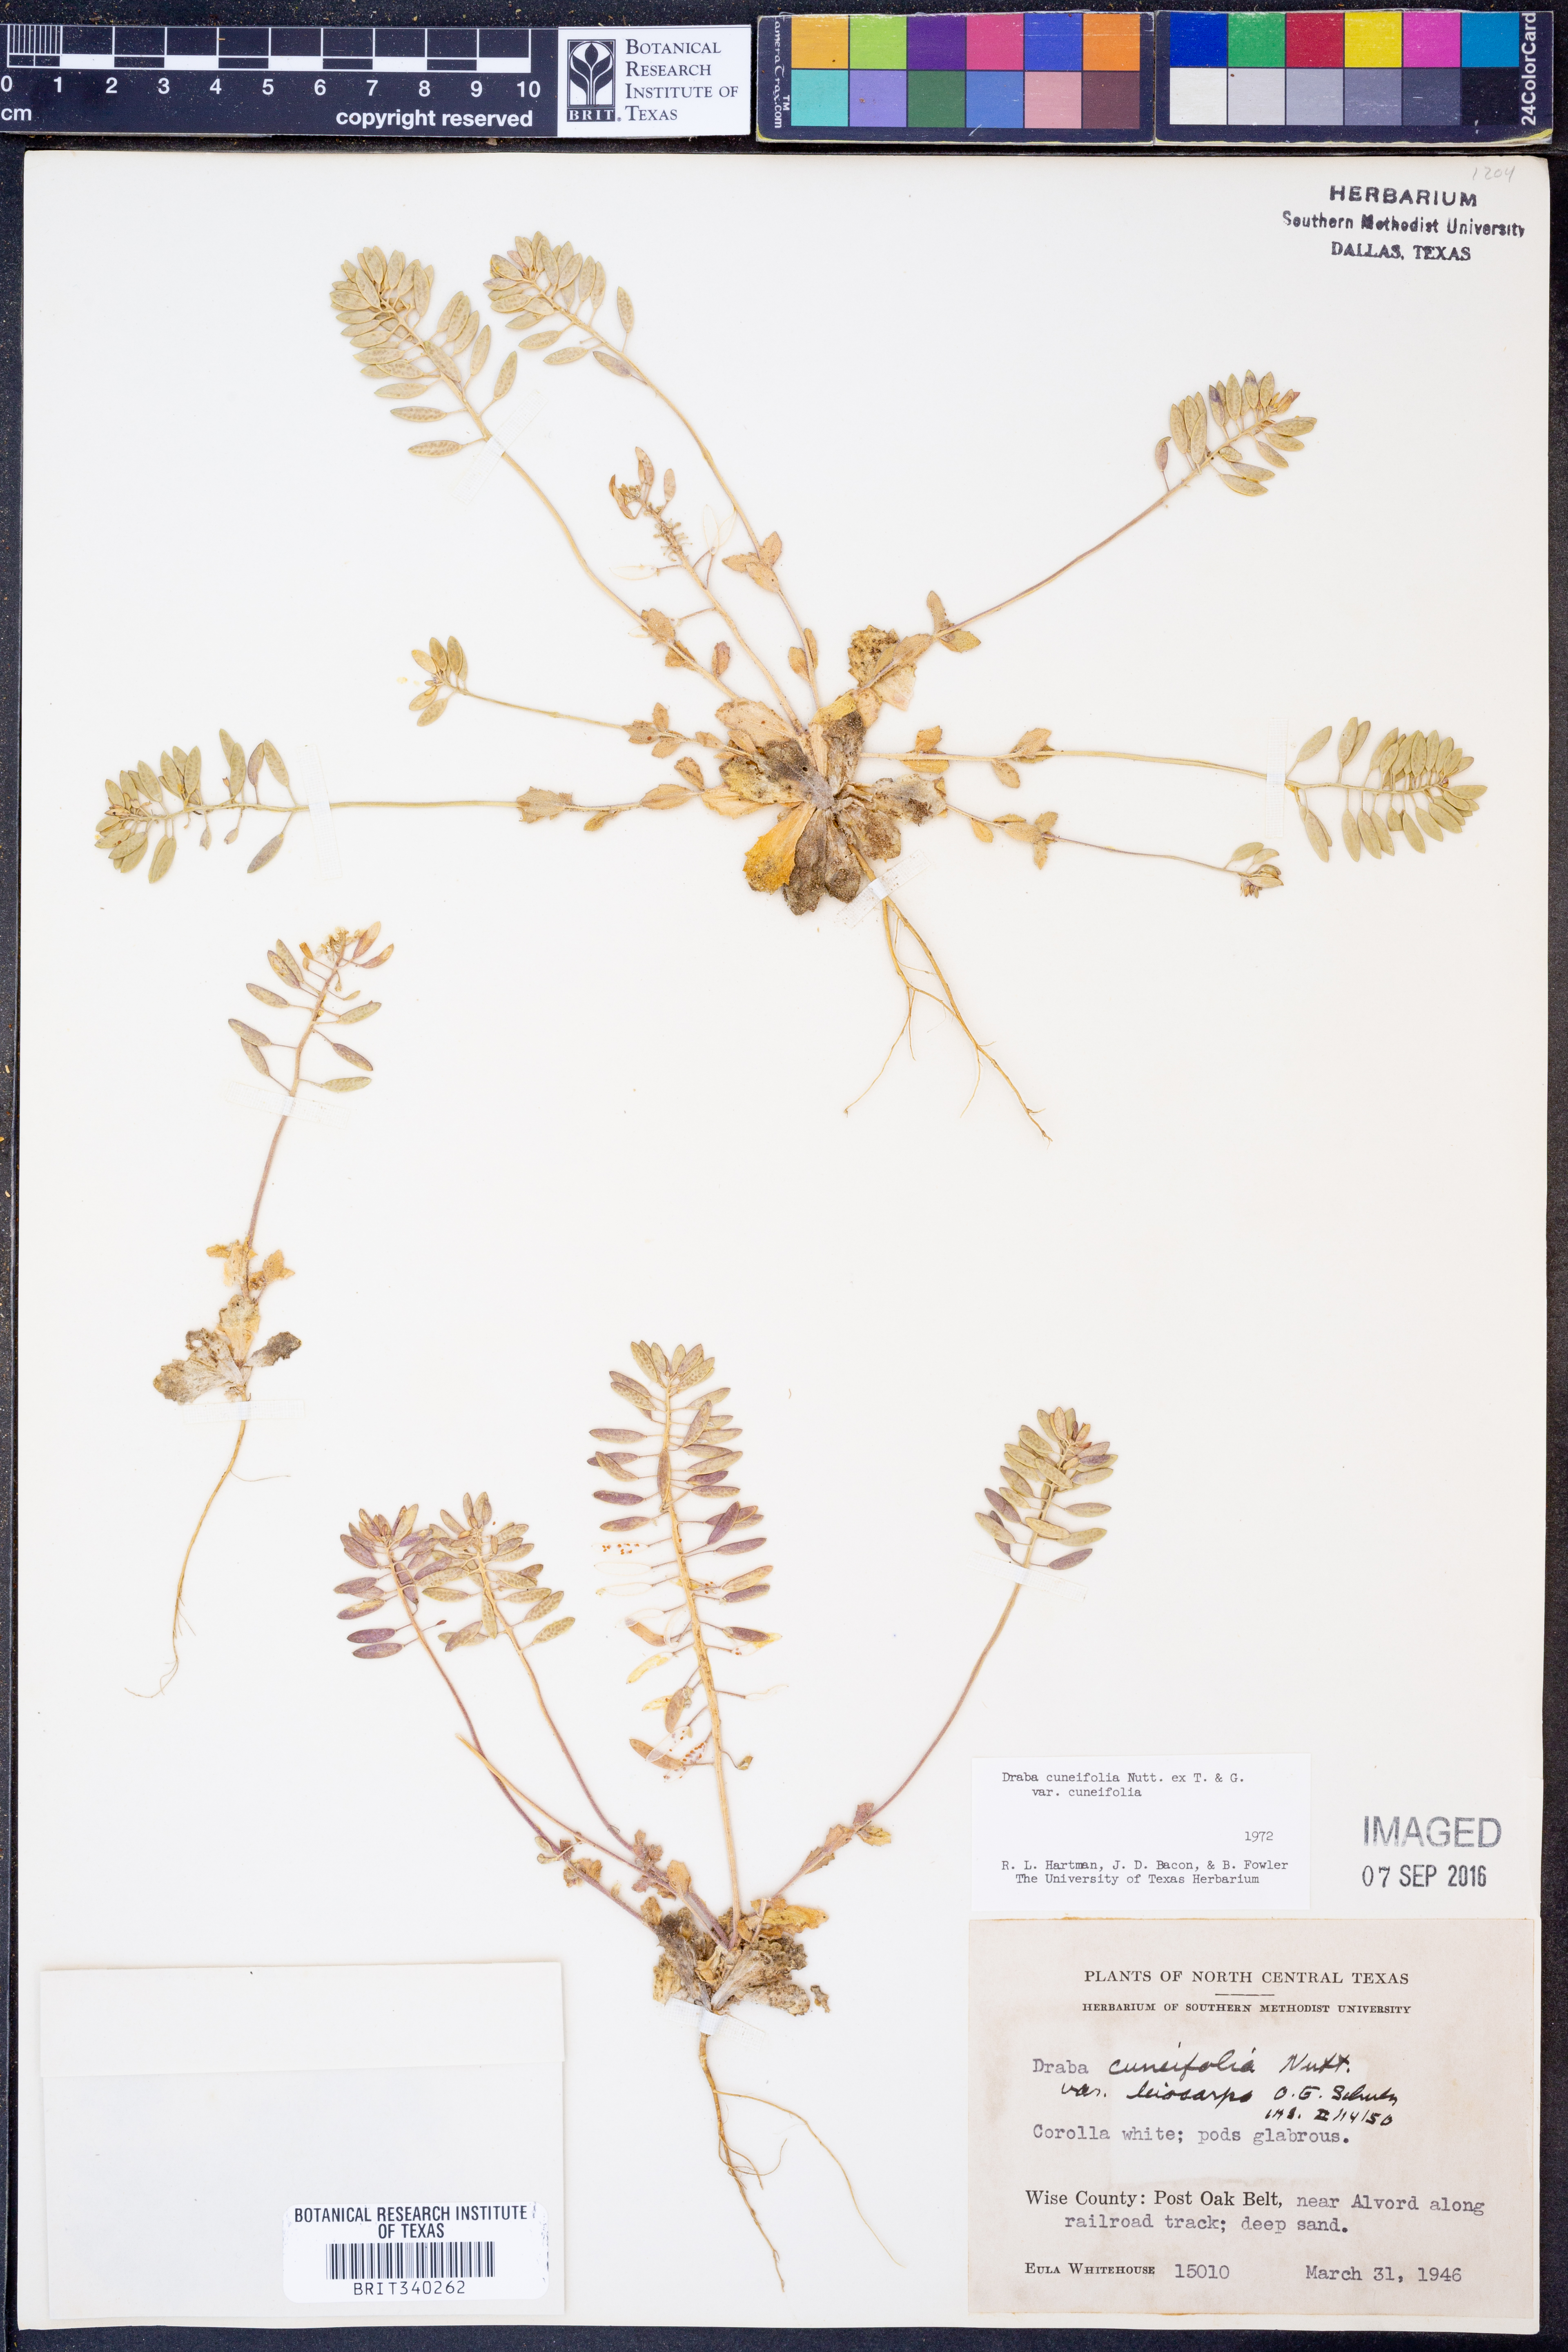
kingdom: Plantae
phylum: Tracheophyta
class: Magnoliopsida
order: Brassicales
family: Brassicaceae
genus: Tomostima
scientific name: Tomostima cuneifolia
